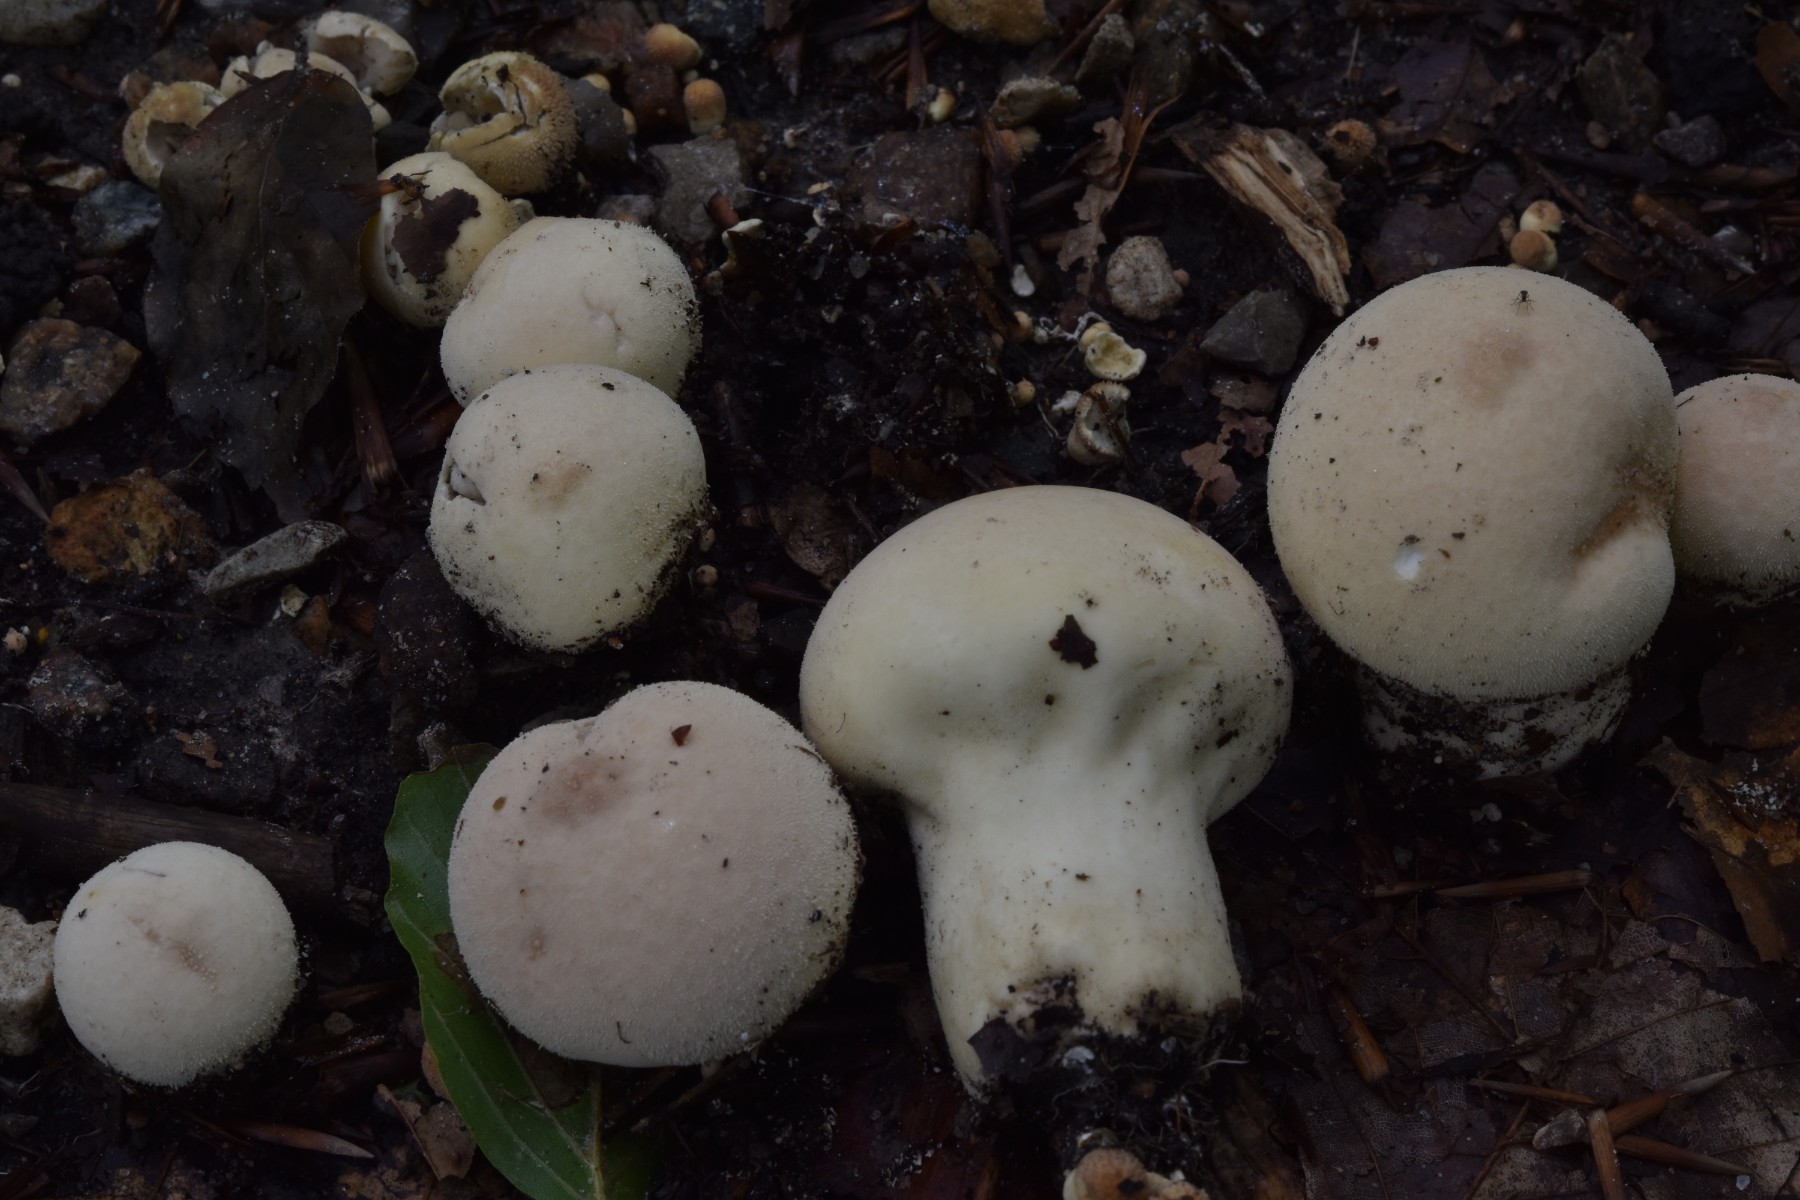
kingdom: Fungi
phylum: Basidiomycota
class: Agaricomycetes
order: Agaricales
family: Lycoperdaceae
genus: Lycoperdon
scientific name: Lycoperdon molle
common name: skov-støvbold
